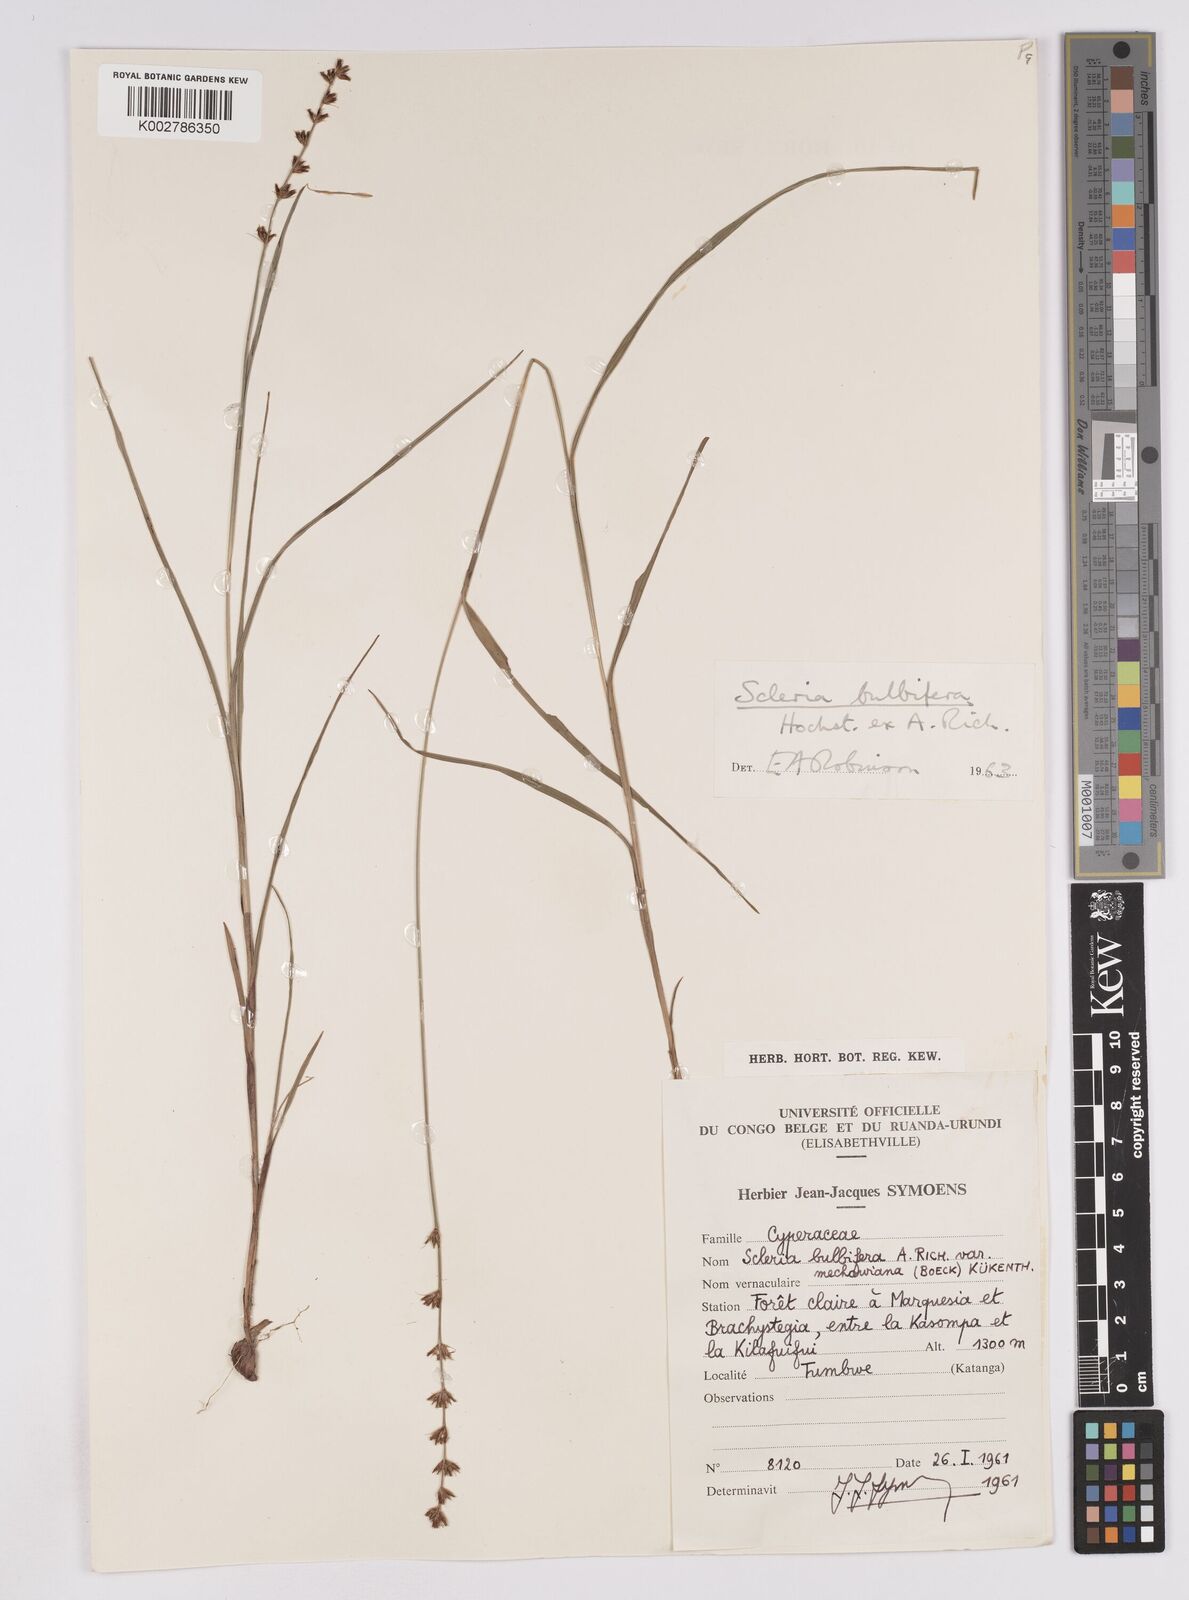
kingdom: Plantae
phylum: Tracheophyta
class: Liliopsida
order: Poales
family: Cyperaceae
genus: Scleria
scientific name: Scleria bulbifera
